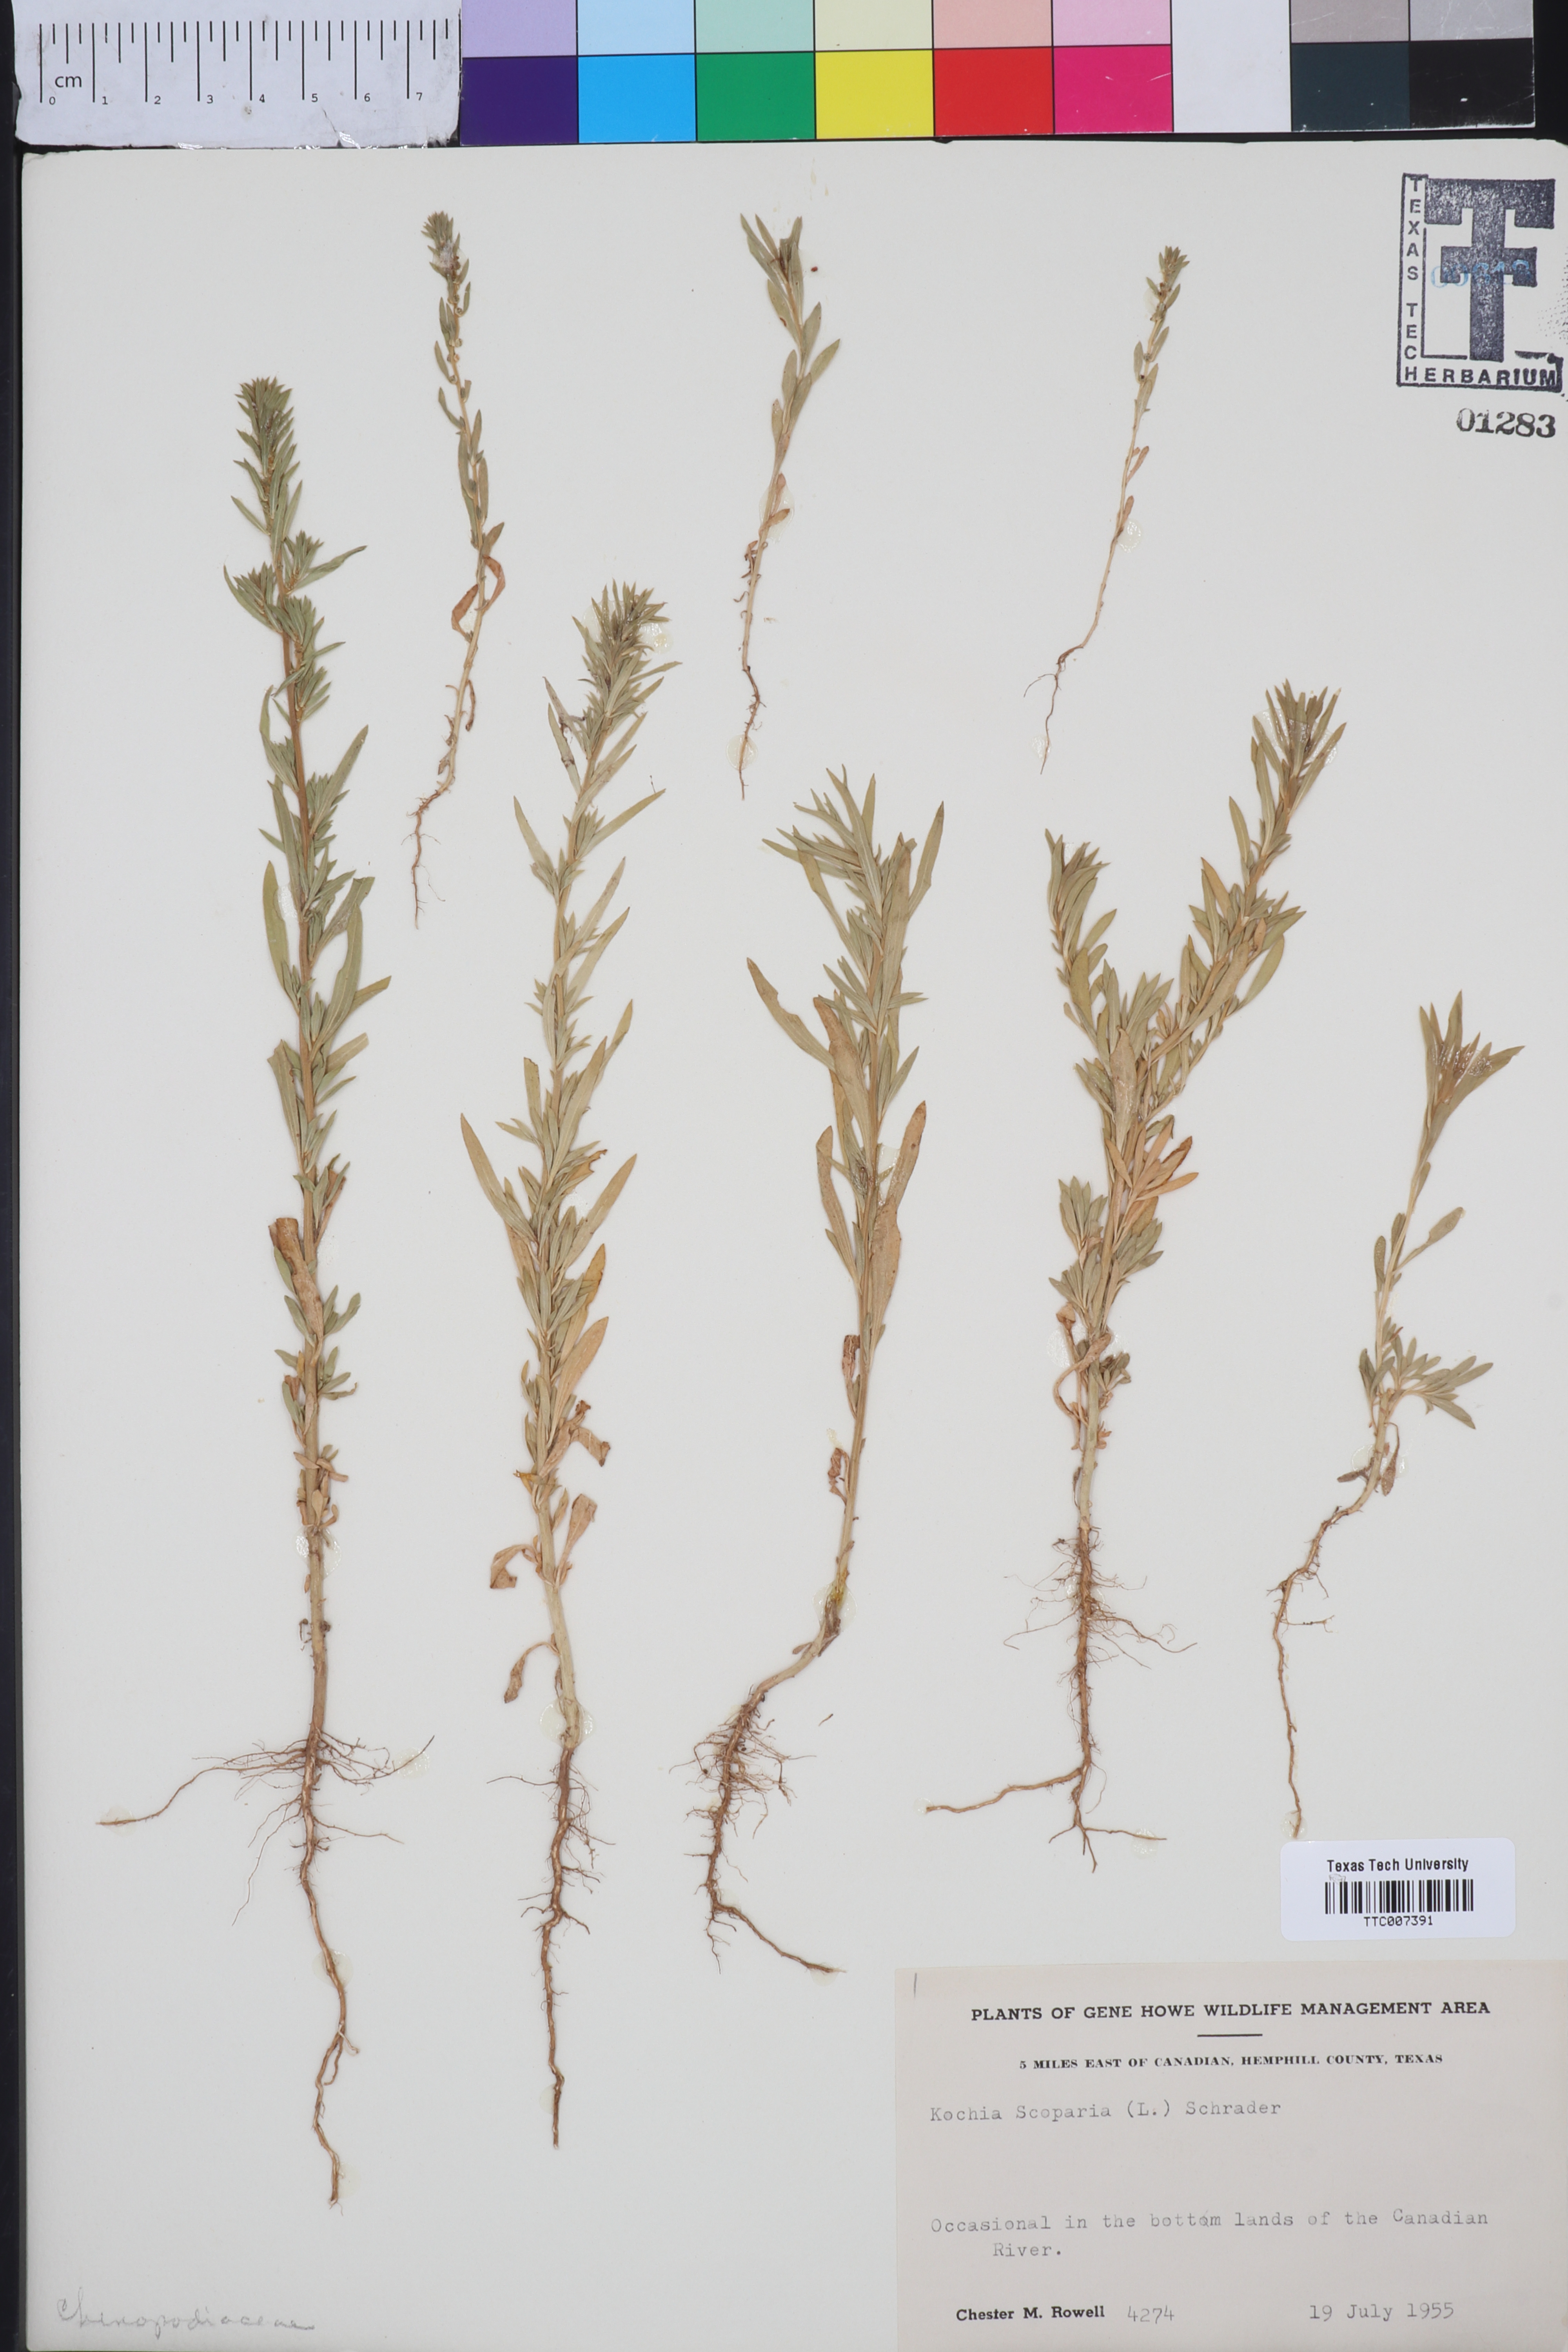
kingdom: Plantae
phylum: Tracheophyta
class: Magnoliopsida
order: Caryophyllales
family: Amaranthaceae
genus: Bassia
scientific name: Bassia scoparia
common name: Belvedere
